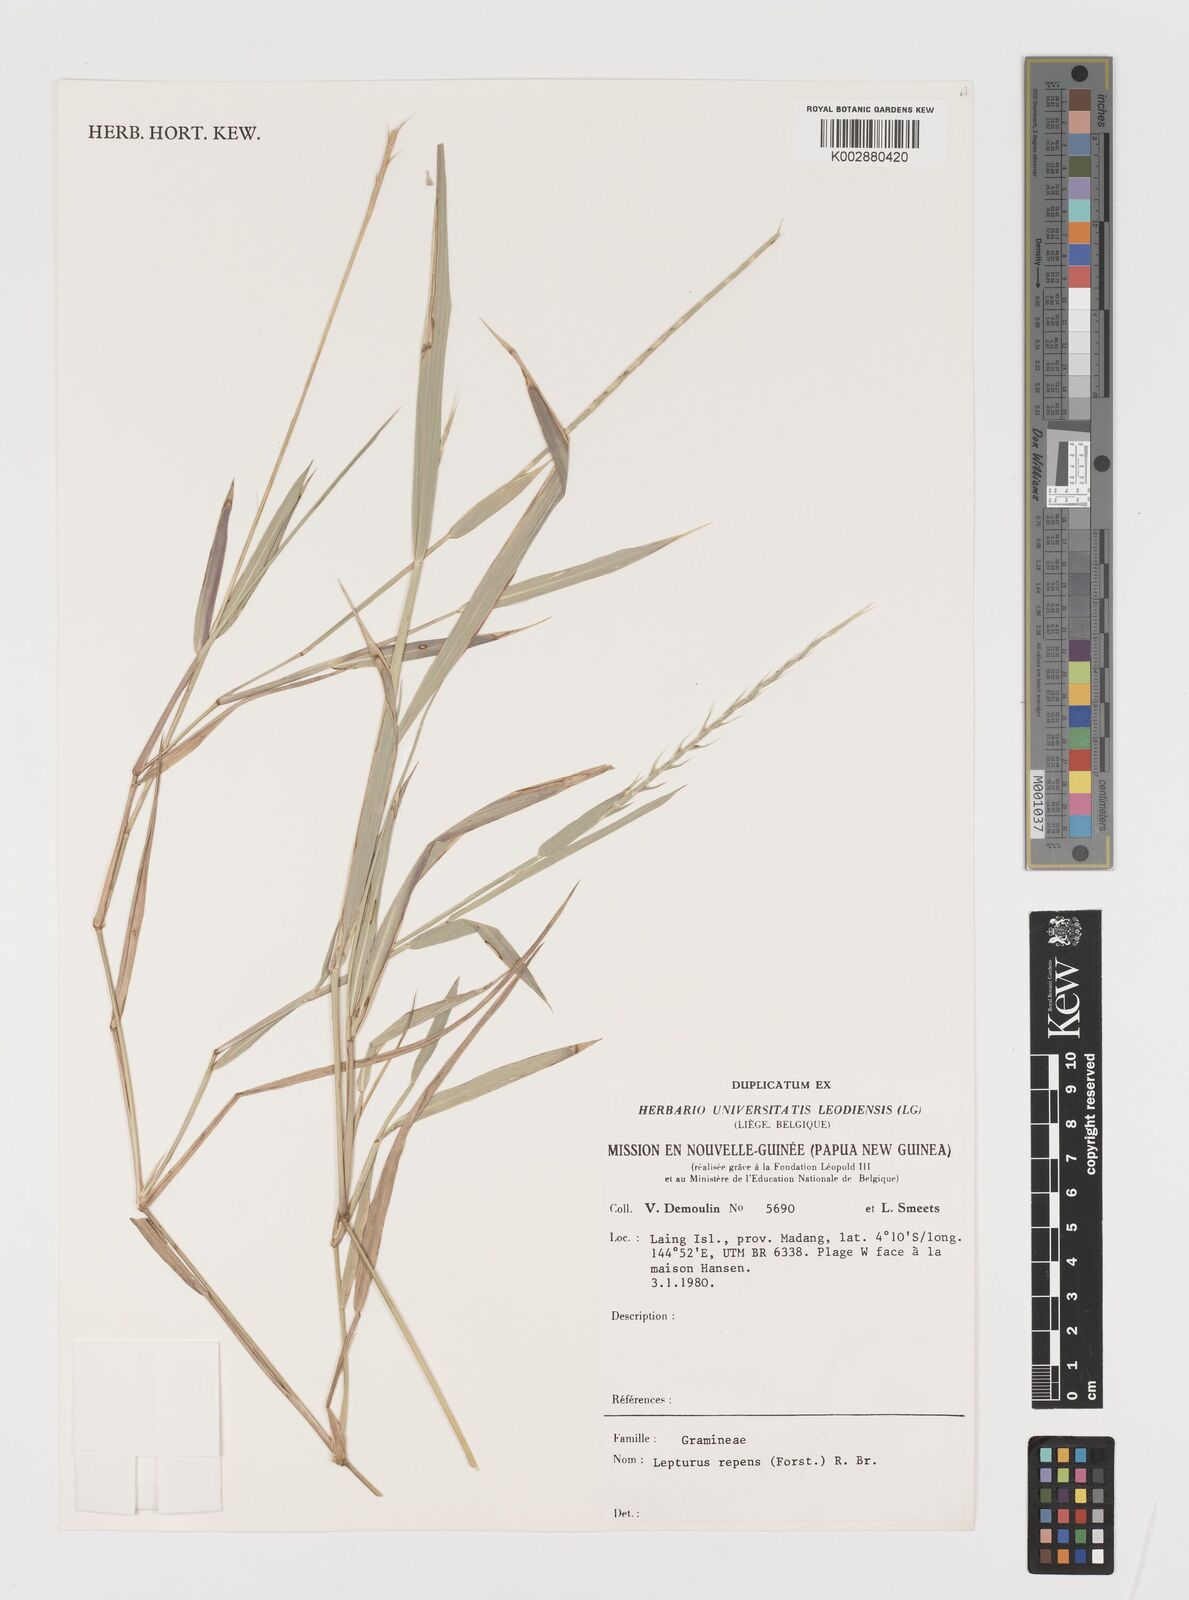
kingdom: Plantae
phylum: Tracheophyta
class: Liliopsida
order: Poales
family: Poaceae
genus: Lepturus
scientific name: Lepturus repens
